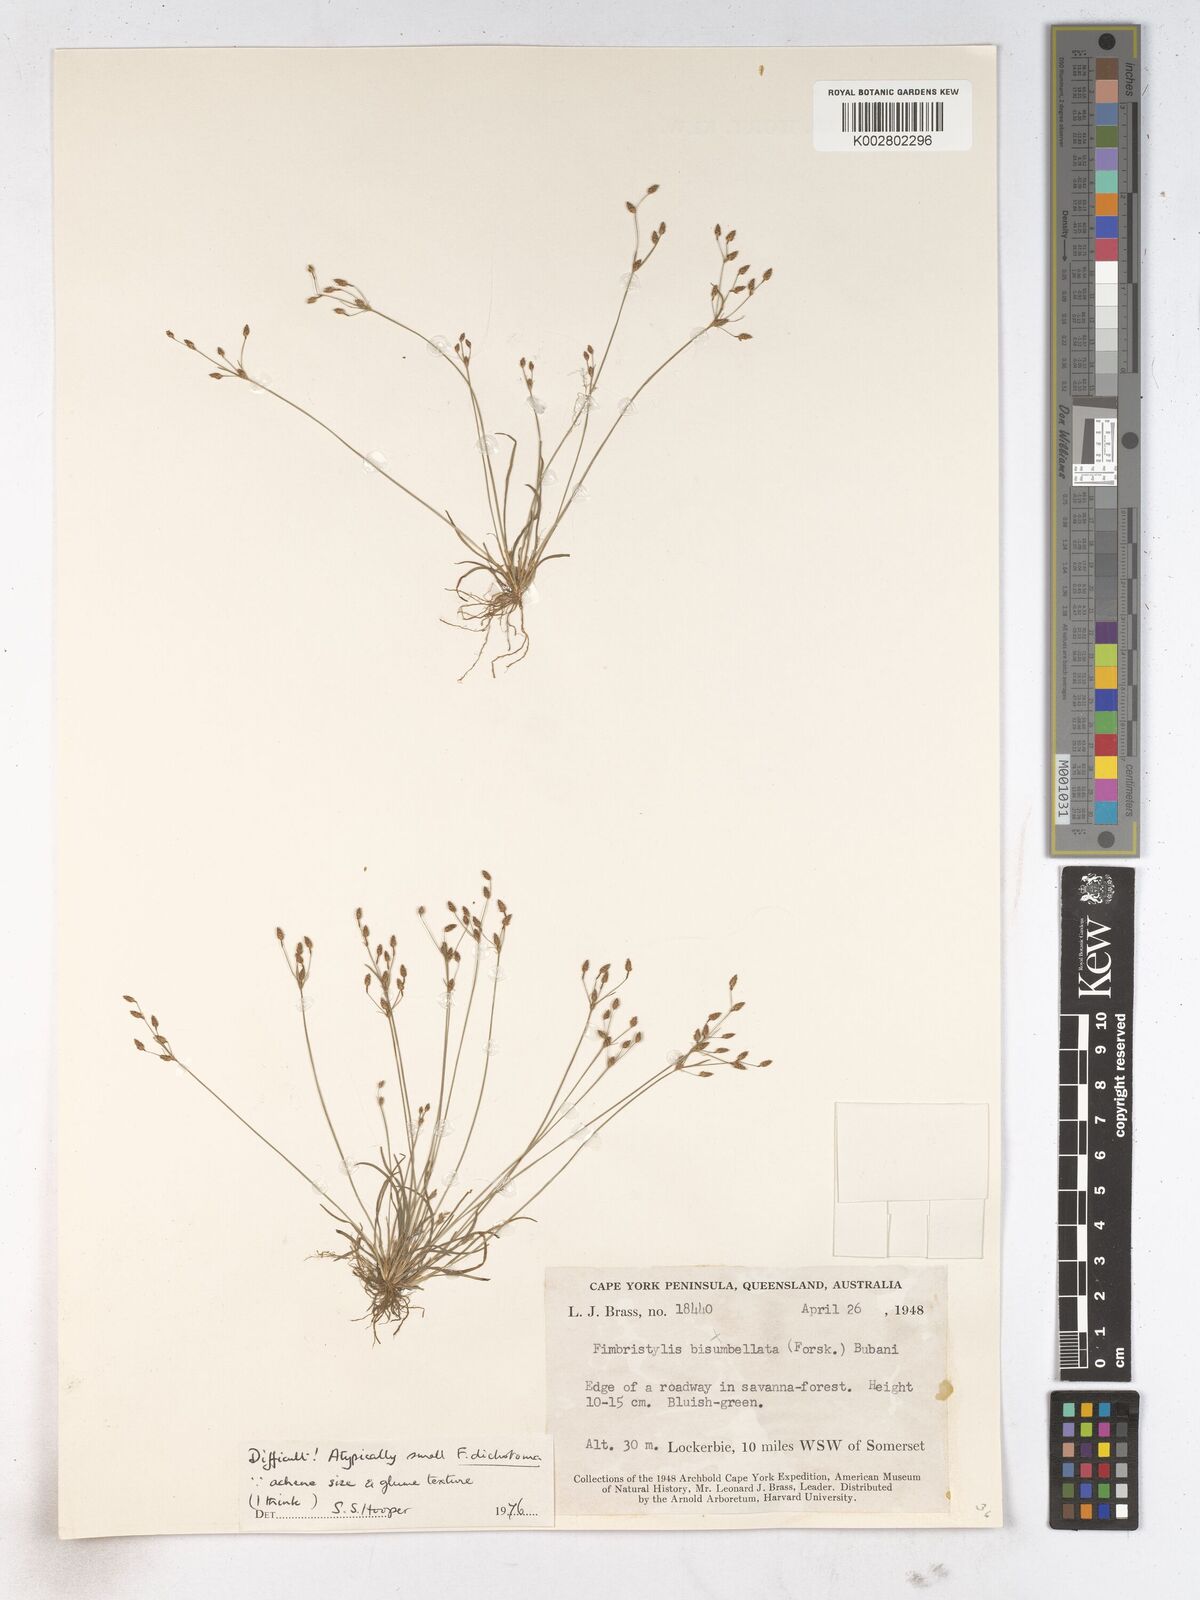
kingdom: Plantae
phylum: Tracheophyta
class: Liliopsida
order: Poales
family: Cyperaceae
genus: Fimbristylis
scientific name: Fimbristylis dichotoma
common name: Forked fimbry
